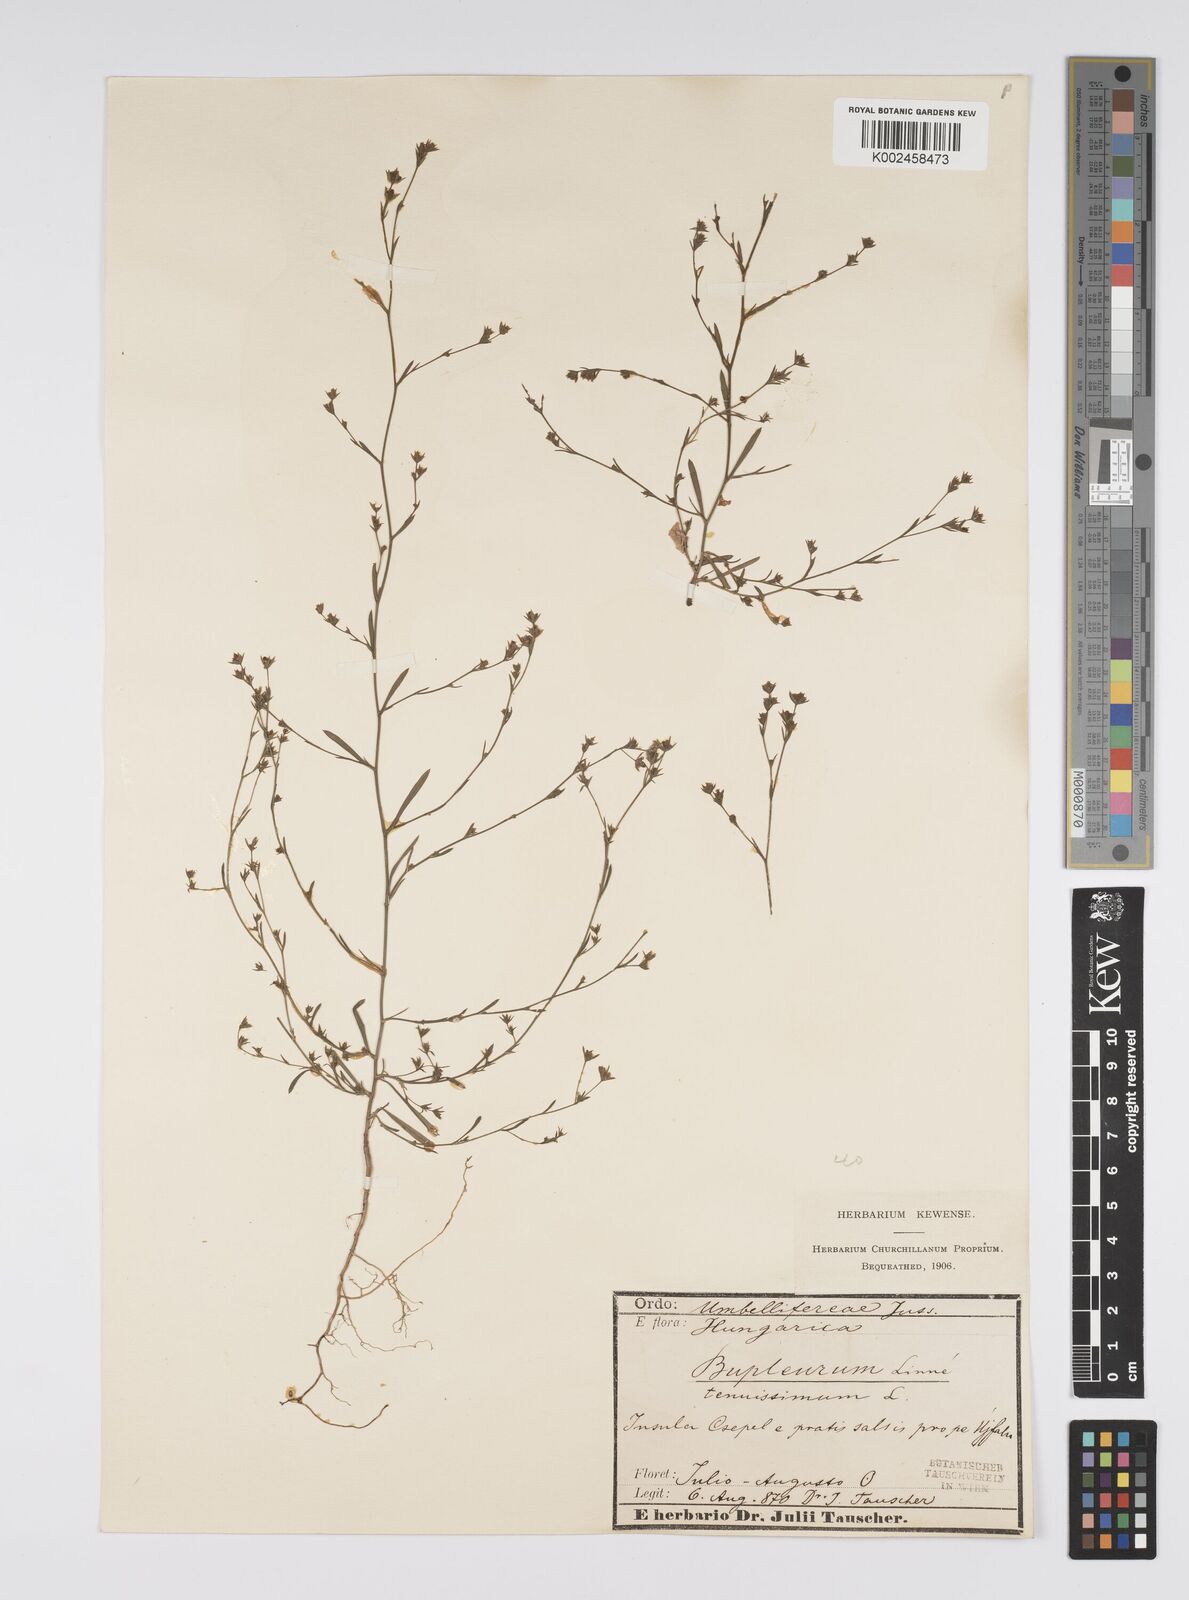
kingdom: Plantae
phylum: Tracheophyta
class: Magnoliopsida
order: Apiales
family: Apiaceae
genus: Bupleurum
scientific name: Bupleurum tenuissimum
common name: Slender hare's-ear
